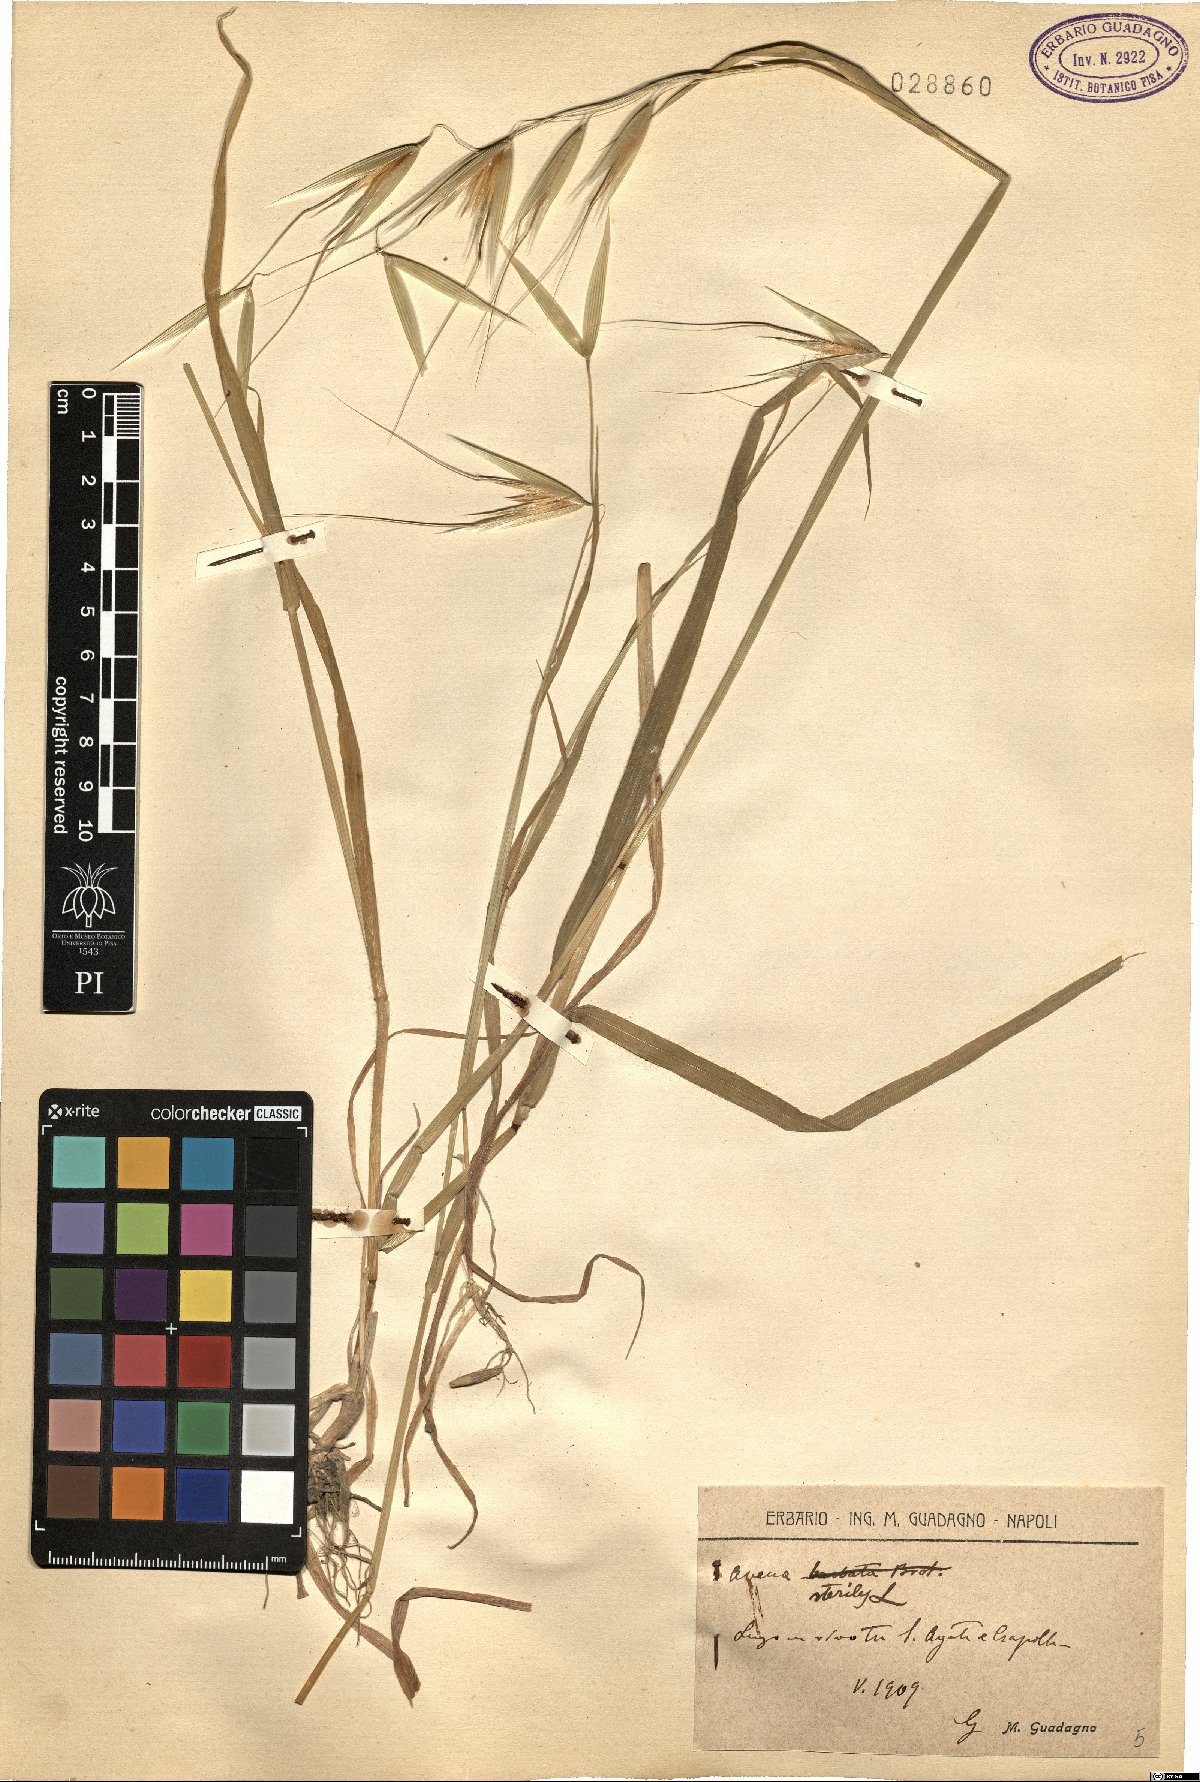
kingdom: Plantae
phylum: Tracheophyta
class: Liliopsida
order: Poales
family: Poaceae
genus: Avena
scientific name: Avena sterilis
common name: Animated oat
